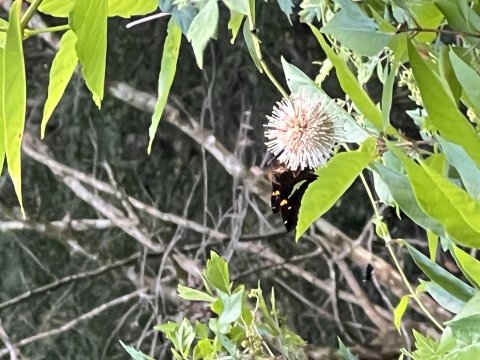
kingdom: Animalia
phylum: Arthropoda
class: Insecta
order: Lepidoptera
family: Hesperiidae
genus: Epargyreus
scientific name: Epargyreus clarus
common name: Silver-spotted Skipper
